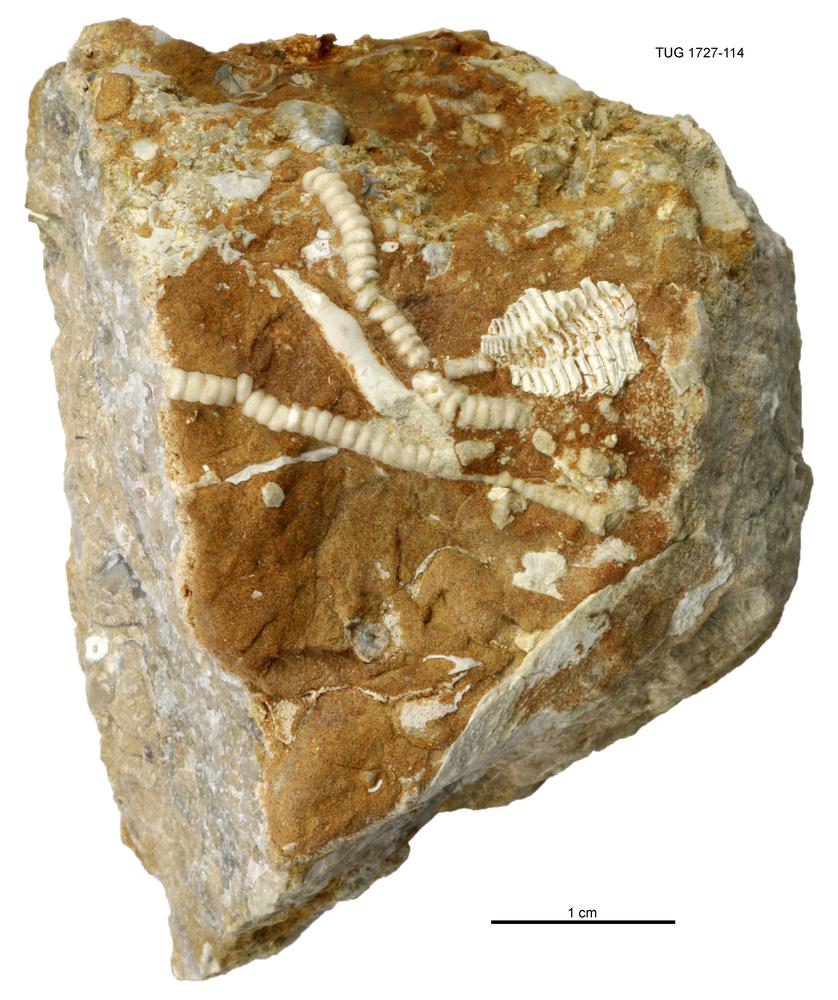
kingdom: Animalia
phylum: Echinodermata
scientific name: Echinodermata
